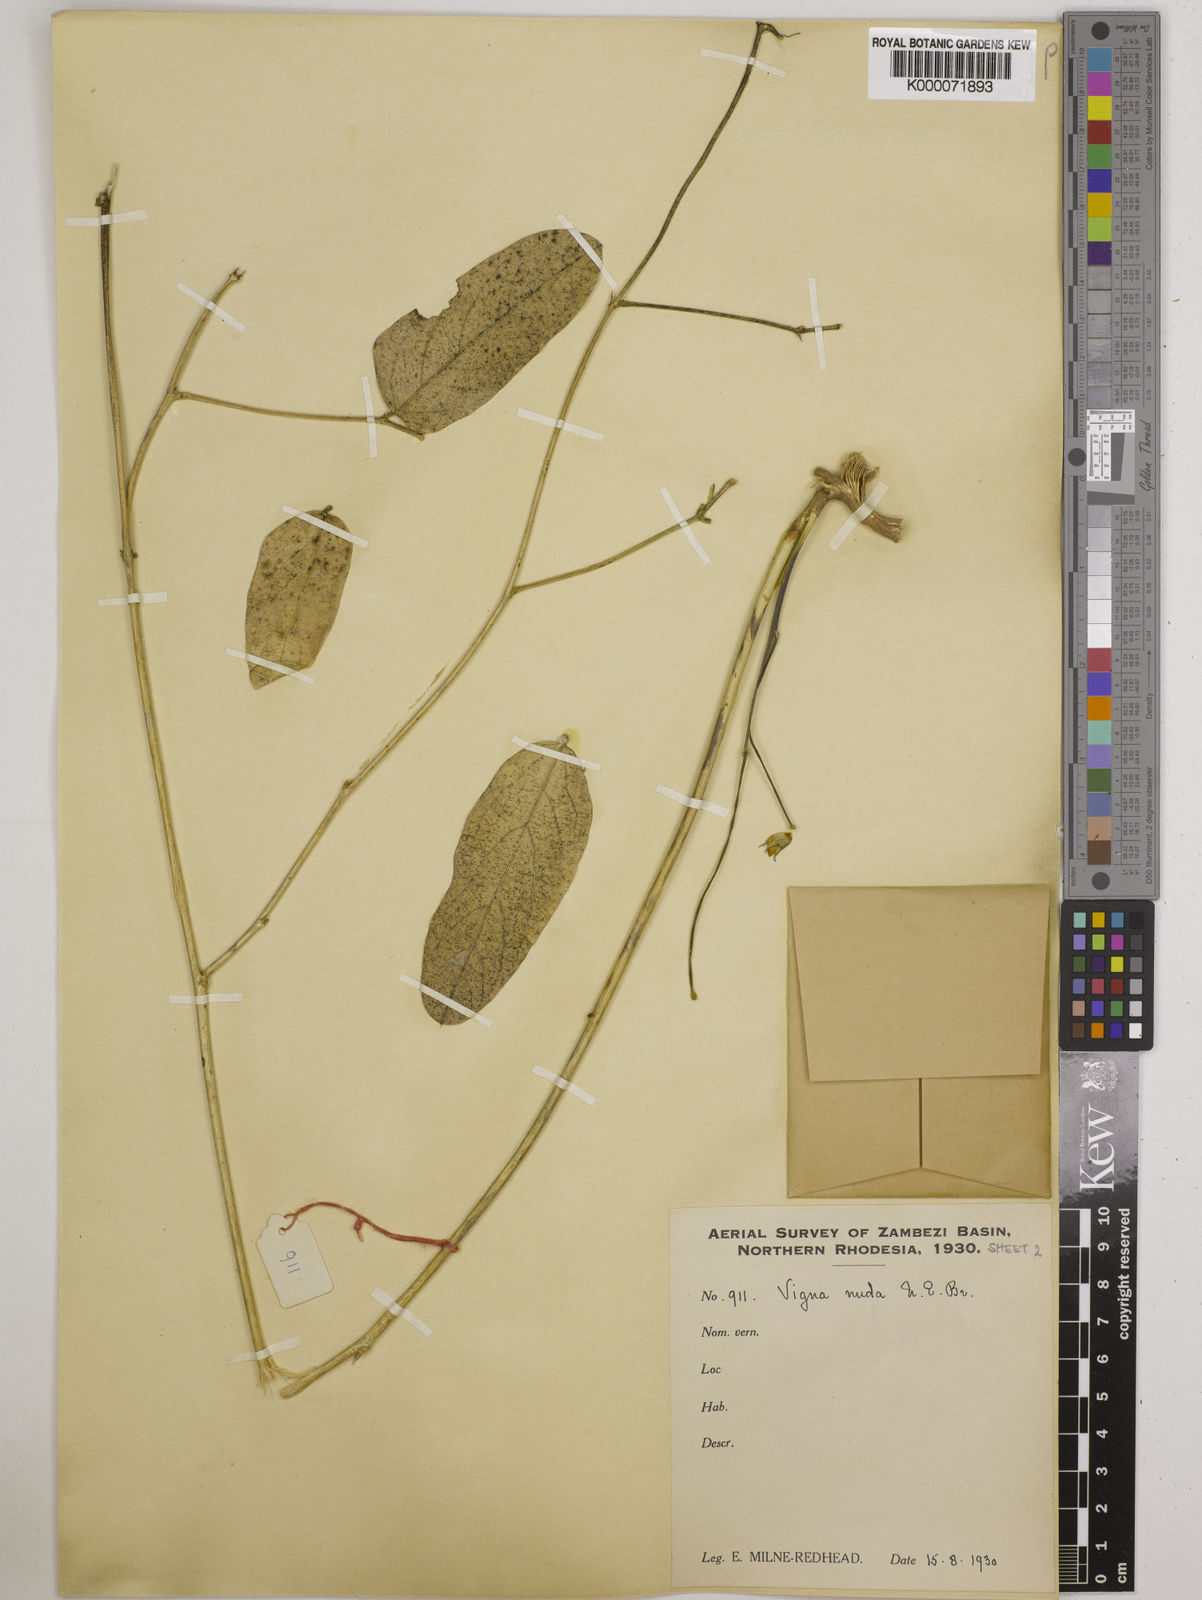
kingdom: Plantae
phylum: Tracheophyta
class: Magnoliopsida
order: Fabales
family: Fabaceae
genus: Vigna
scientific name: Vigna antunesii
